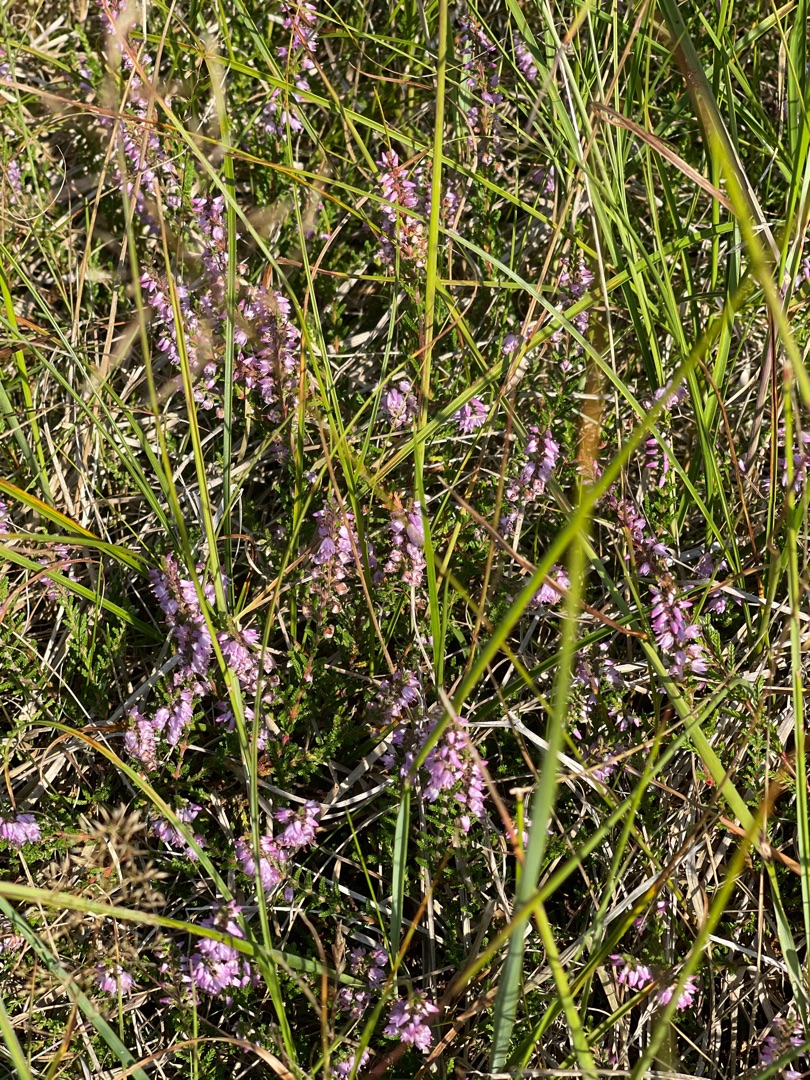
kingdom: Plantae
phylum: Tracheophyta
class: Magnoliopsida
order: Ericales
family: Ericaceae
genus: Calluna
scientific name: Calluna vulgaris
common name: Hedelyng
